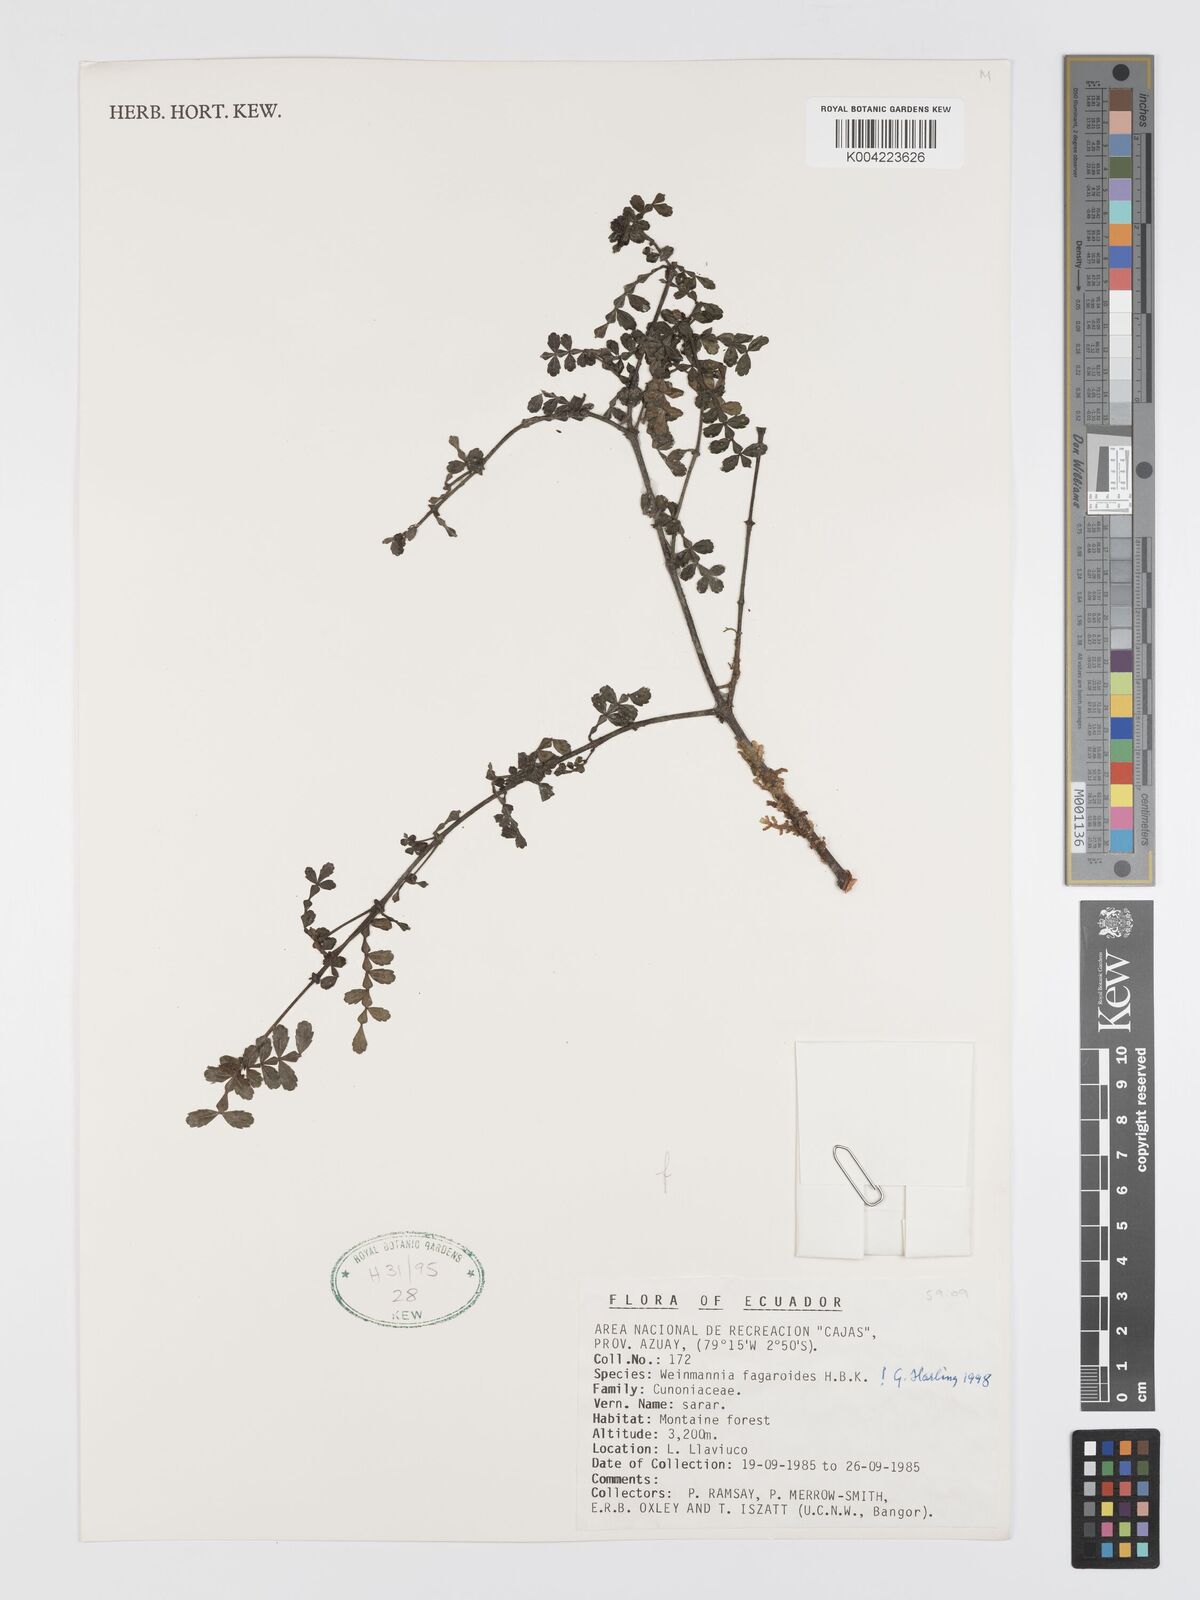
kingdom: Plantae
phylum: Tracheophyta
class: Magnoliopsida
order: Oxalidales
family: Cunoniaceae
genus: Weinmannia
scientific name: Weinmannia fagaroides
